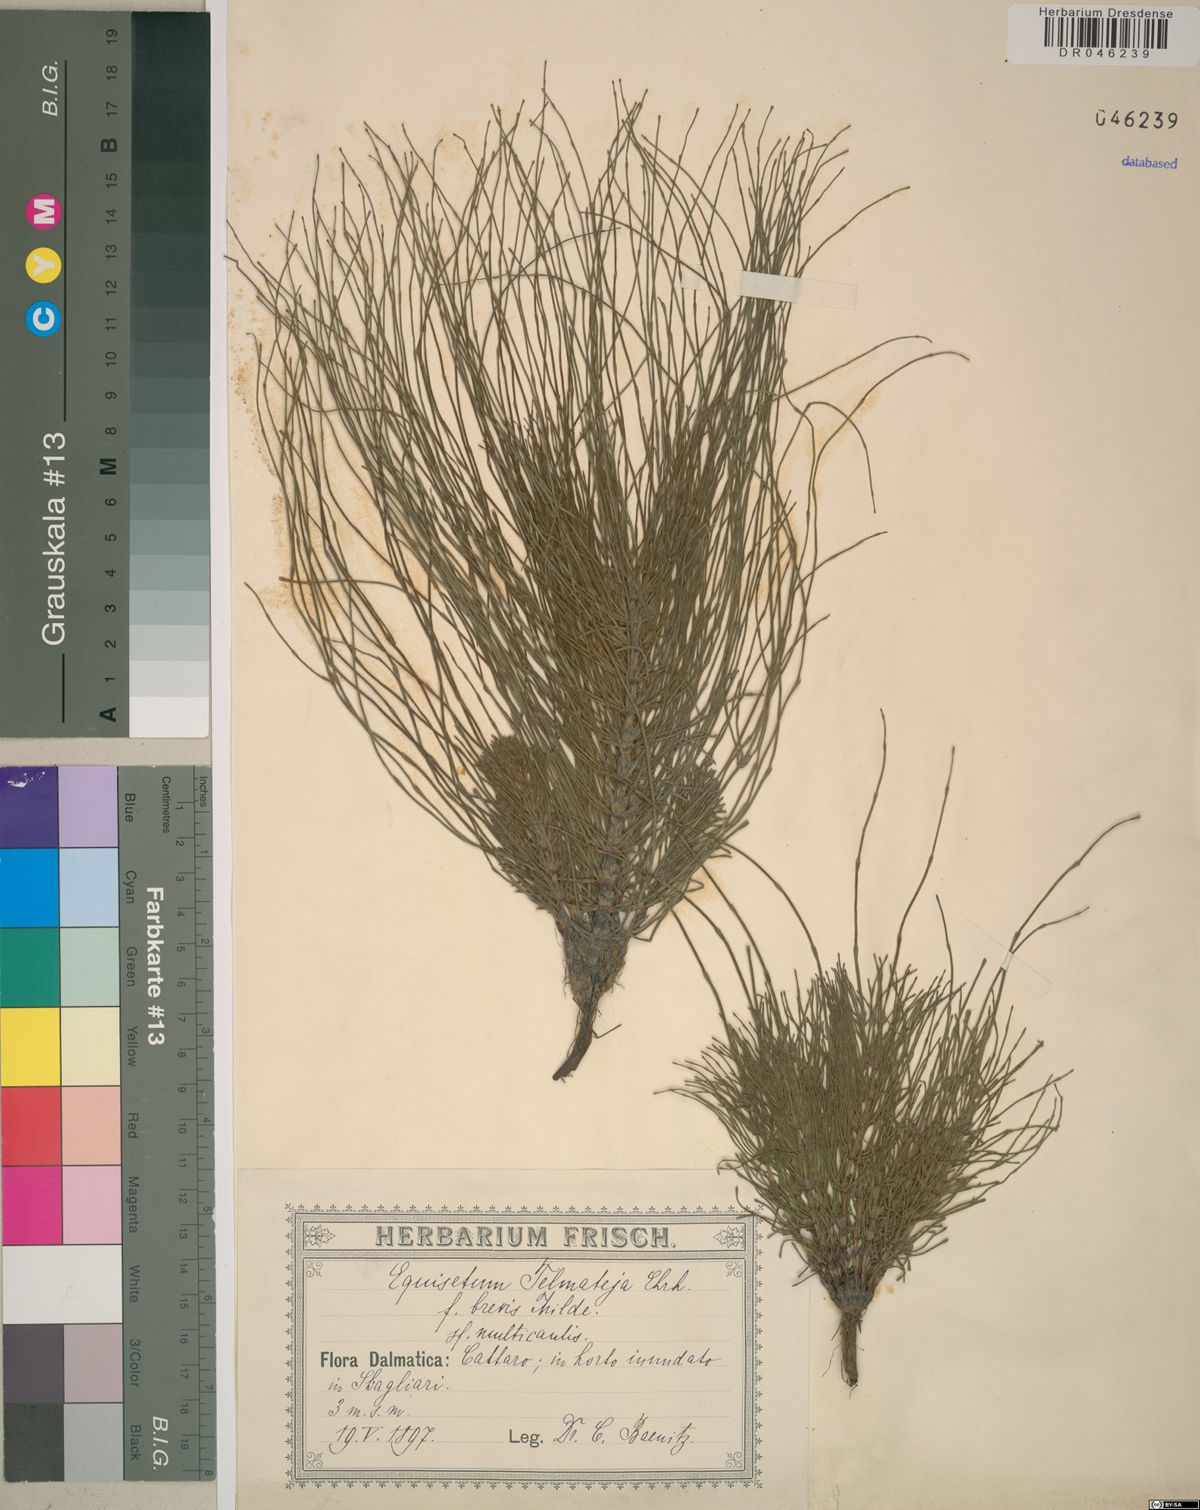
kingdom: Plantae
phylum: Tracheophyta
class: Polypodiopsida
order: Equisetales
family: Equisetaceae
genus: Equisetum
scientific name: Equisetum telmateia
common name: Great horsetail
